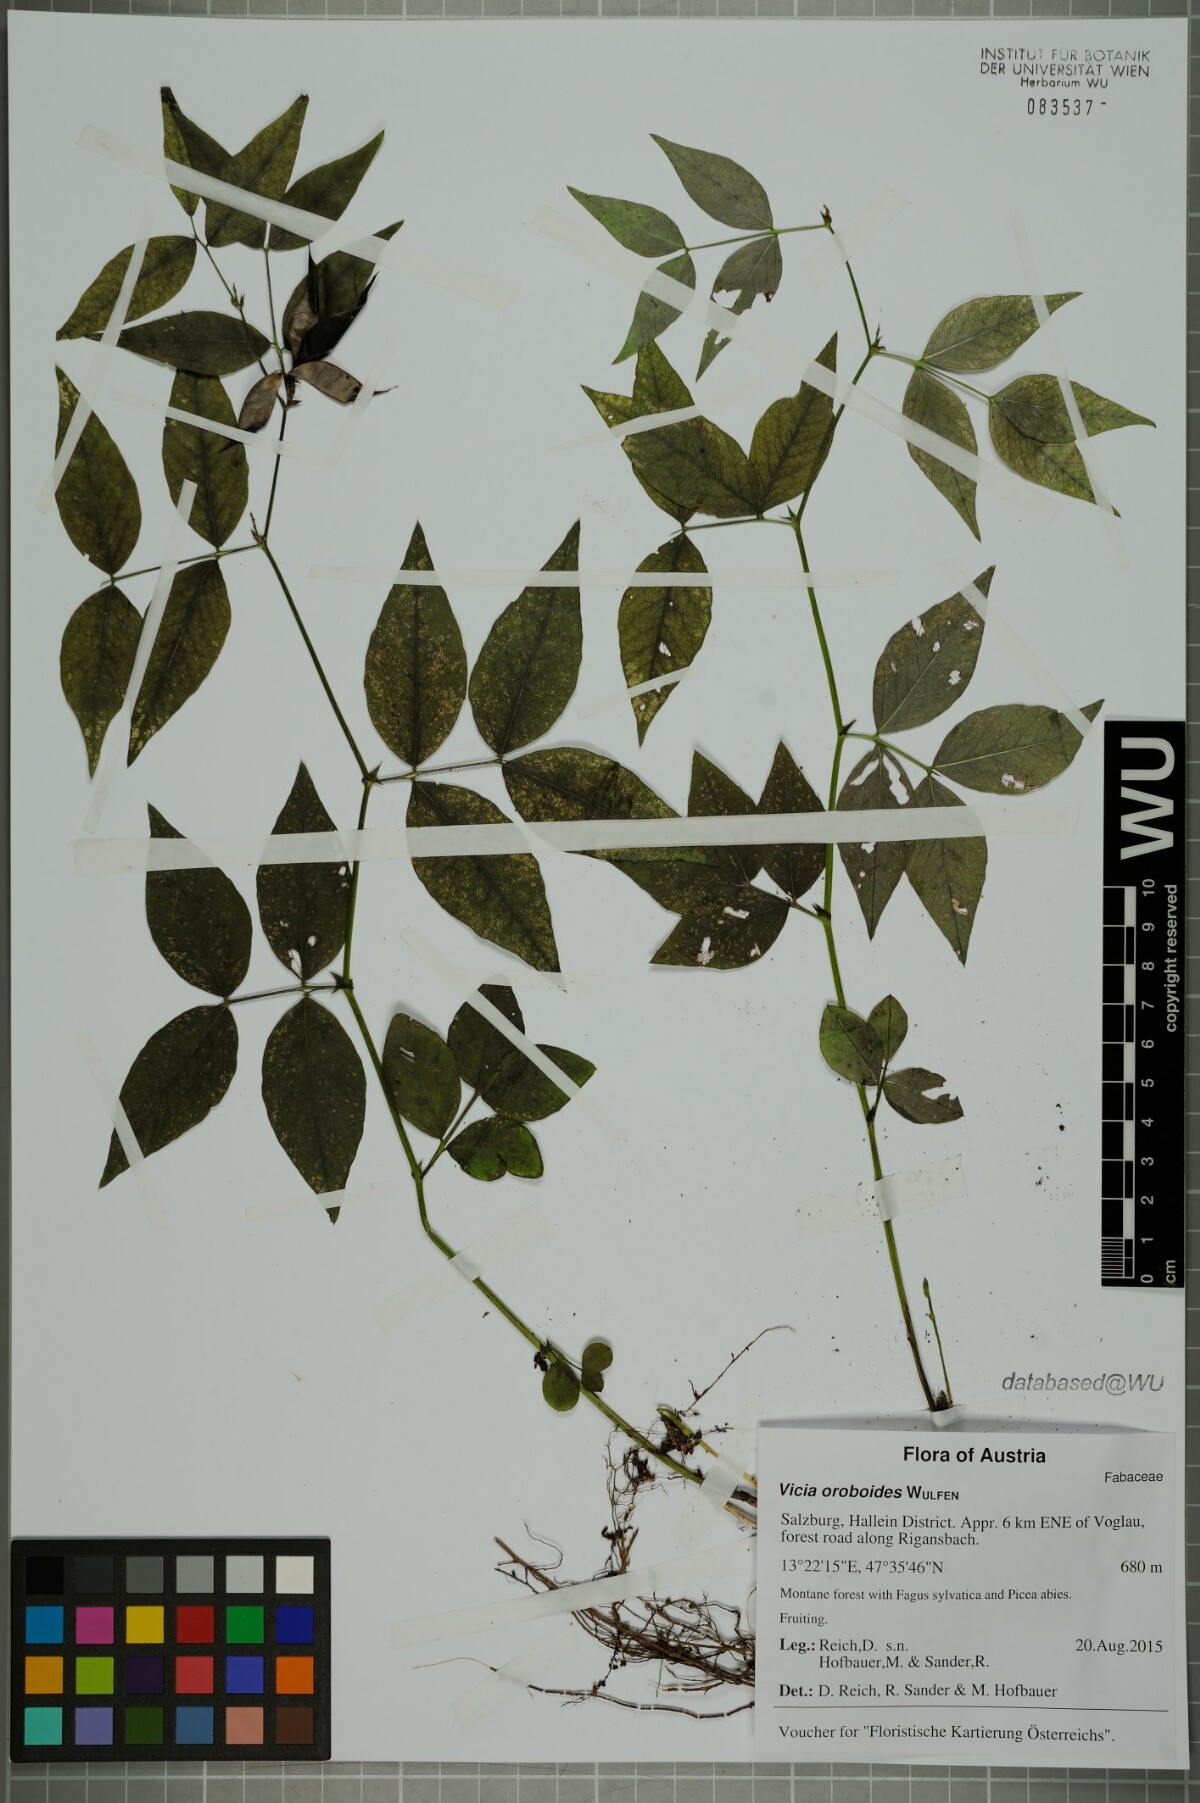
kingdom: Plantae
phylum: Tracheophyta
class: Magnoliopsida
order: Fabales
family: Fabaceae
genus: Vicia
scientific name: Vicia oroboides
